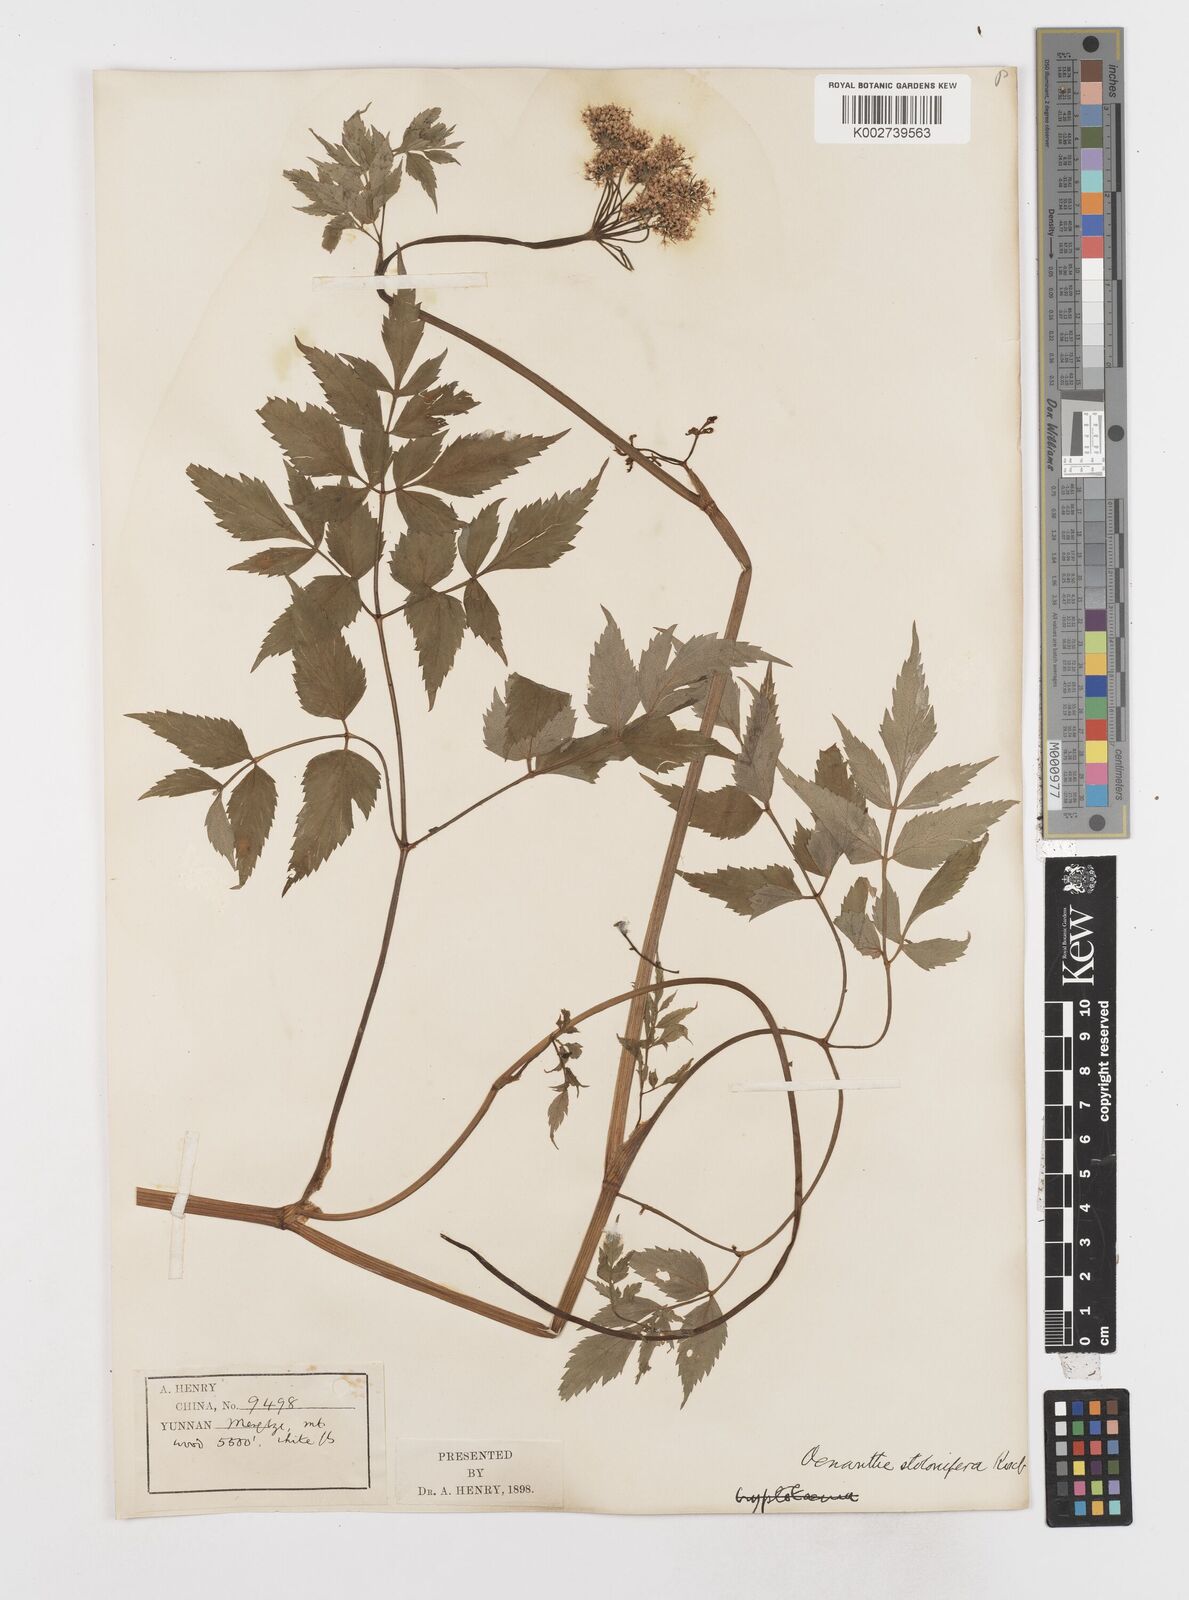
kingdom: Plantae
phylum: Tracheophyta
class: Magnoliopsida
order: Apiales
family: Apiaceae
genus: Oenanthe
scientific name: Oenanthe javanica
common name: Java water-dropwort
